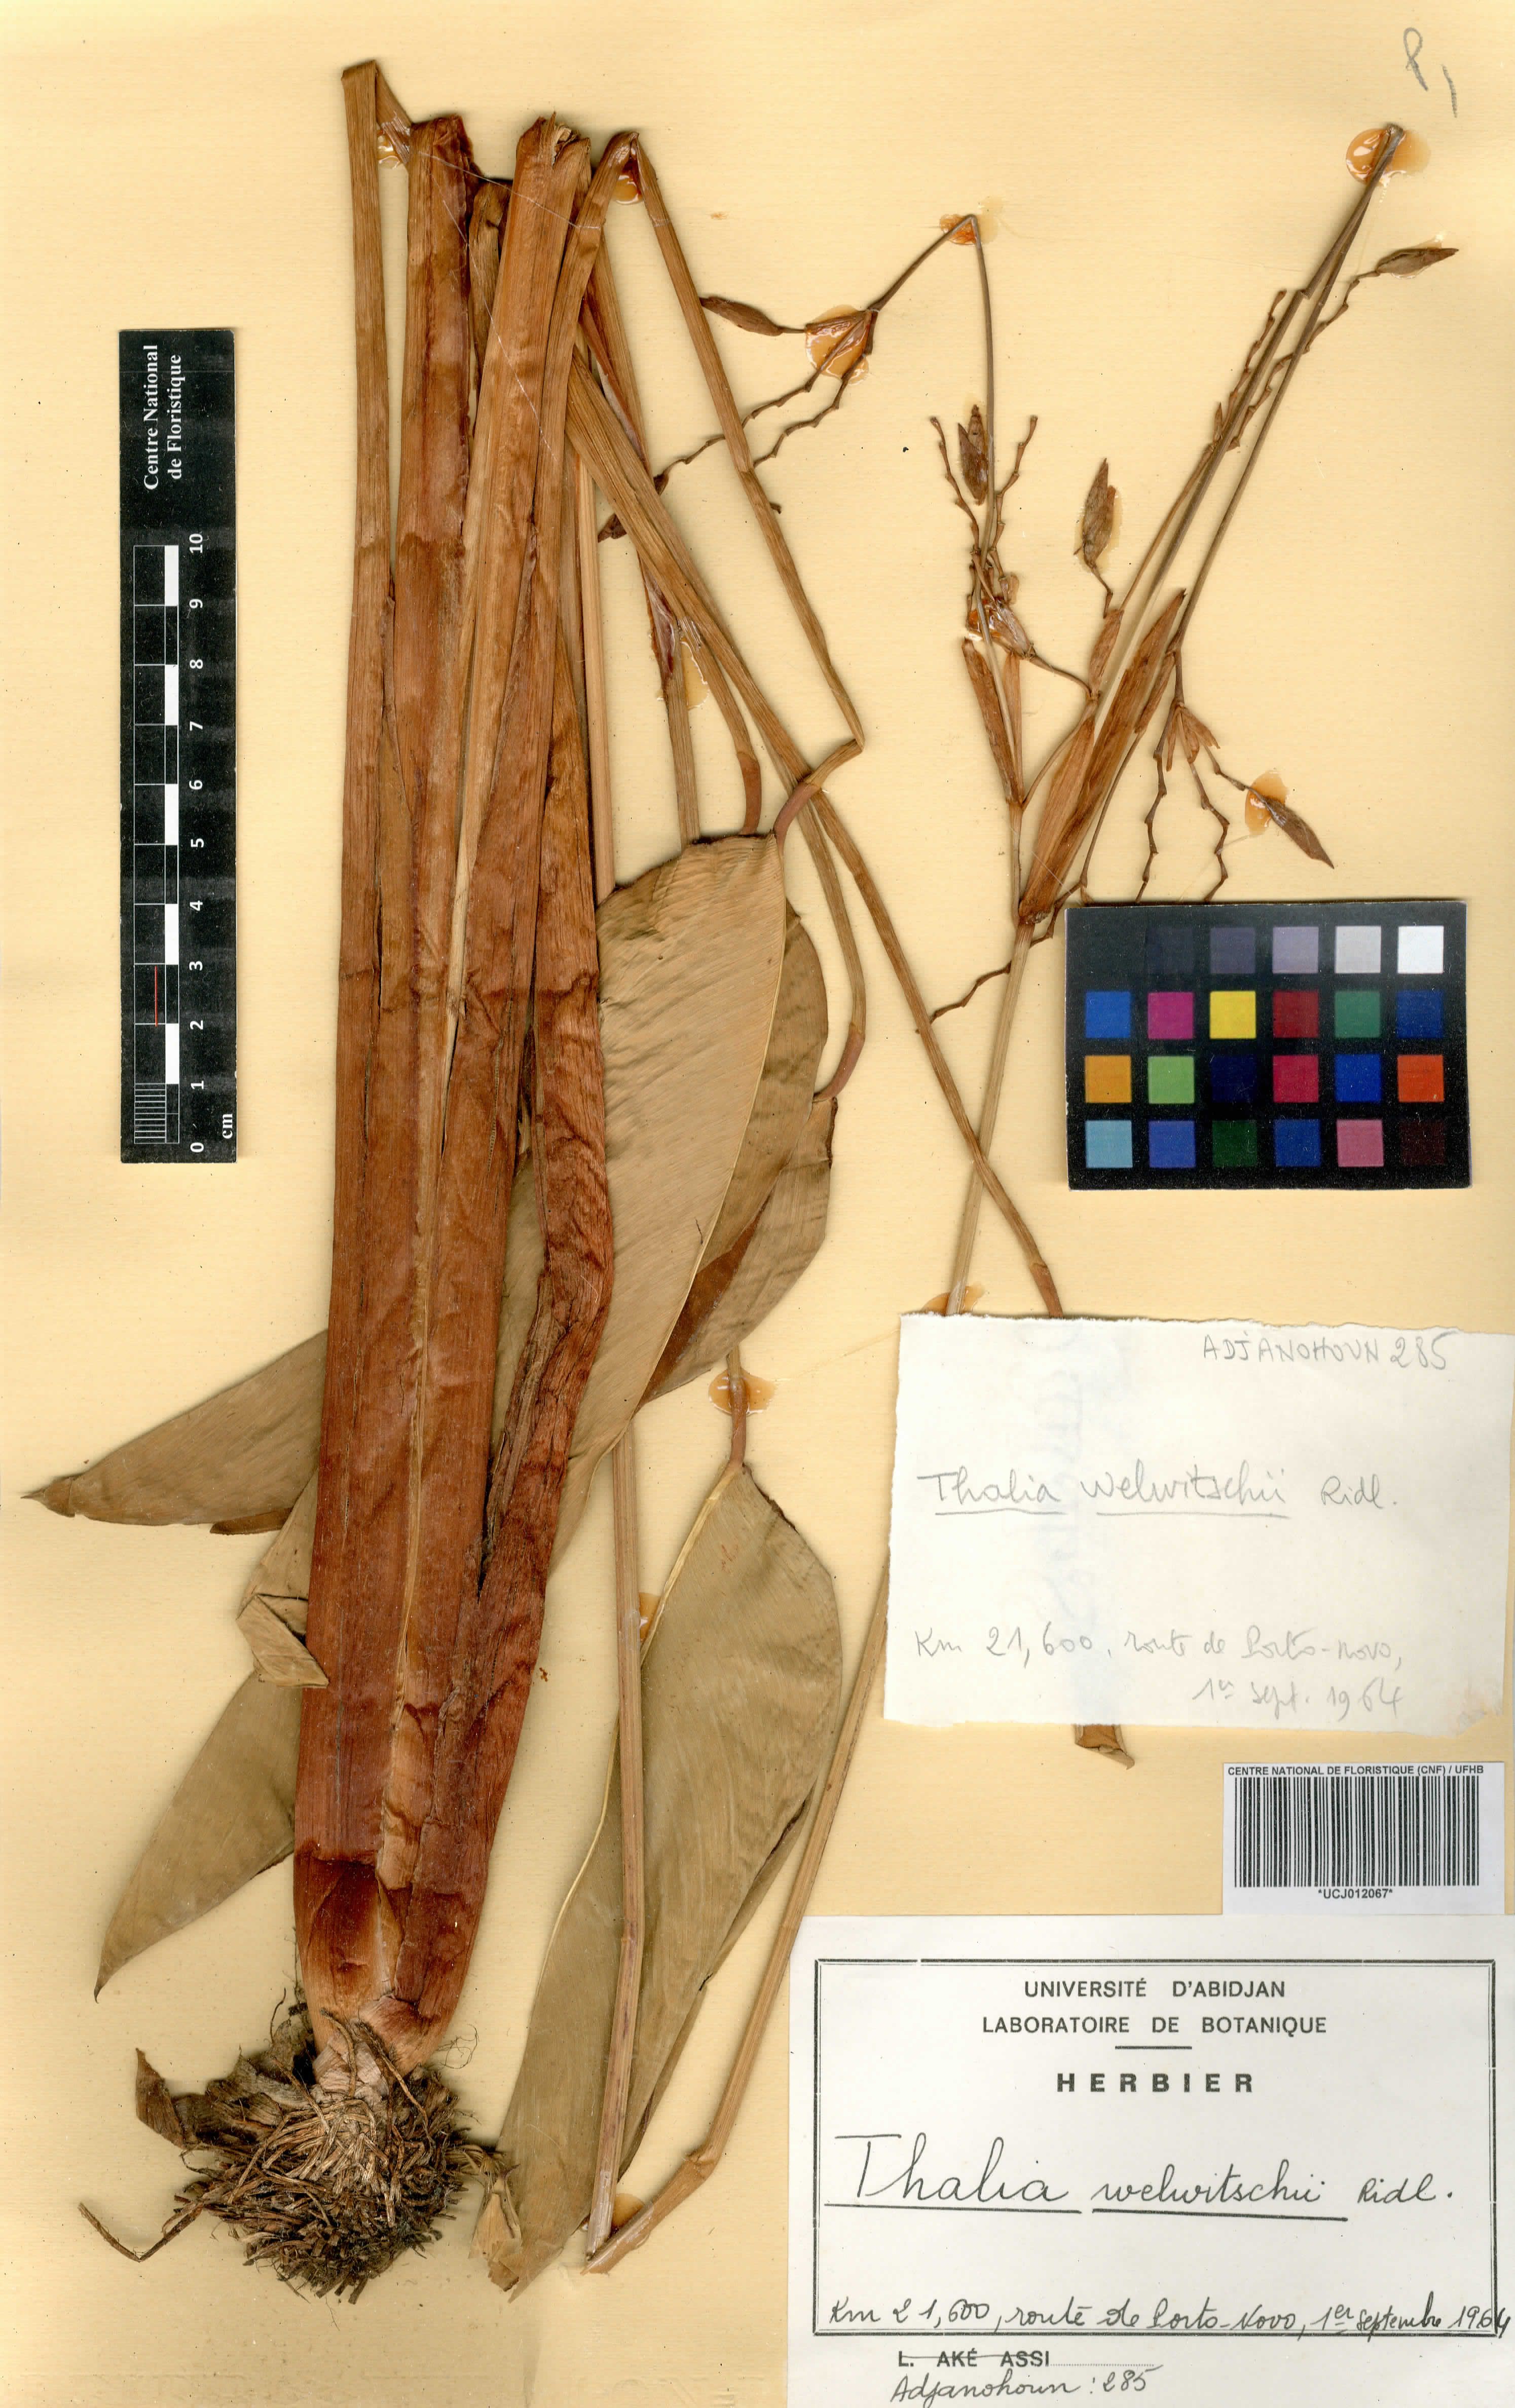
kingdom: Plantae
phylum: Tracheophyta
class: Liliopsida
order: Zingiberales
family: Marantaceae
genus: Thalia
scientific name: Thalia geniculata
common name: Arrowroot
